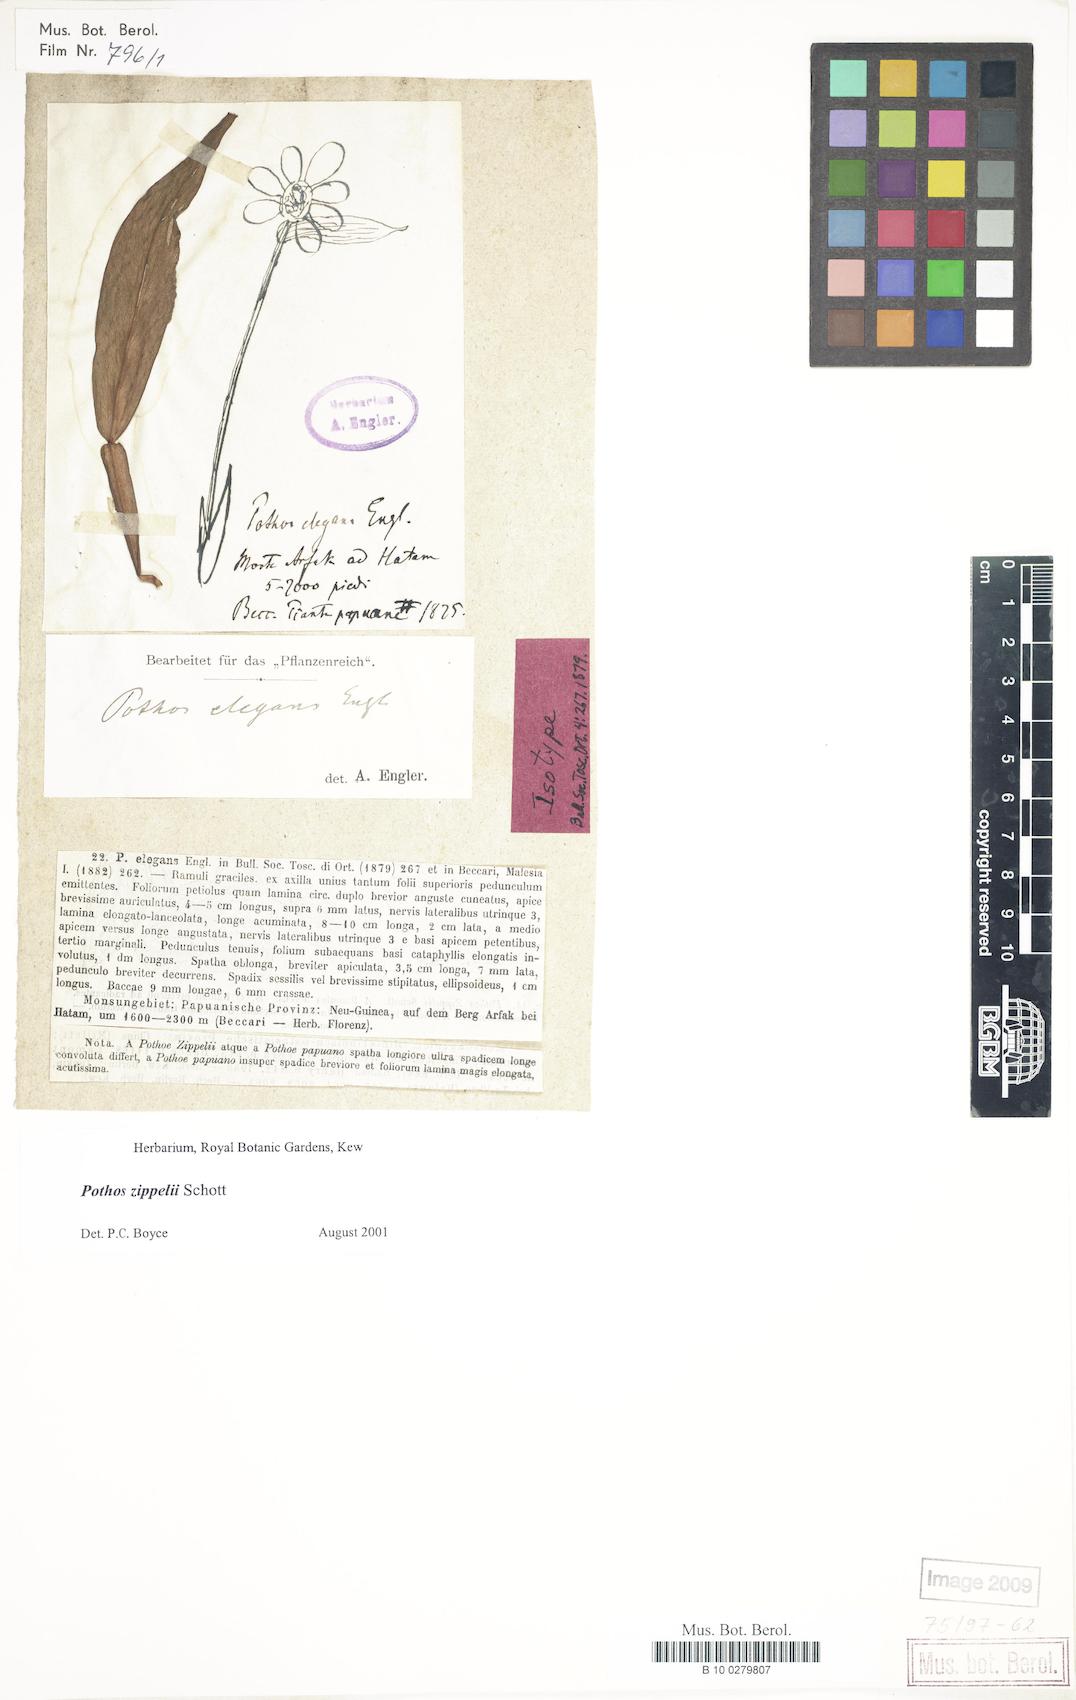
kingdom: Plantae
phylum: Tracheophyta
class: Liliopsida
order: Alismatales
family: Araceae
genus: Pothos
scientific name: Pothos zippelii
